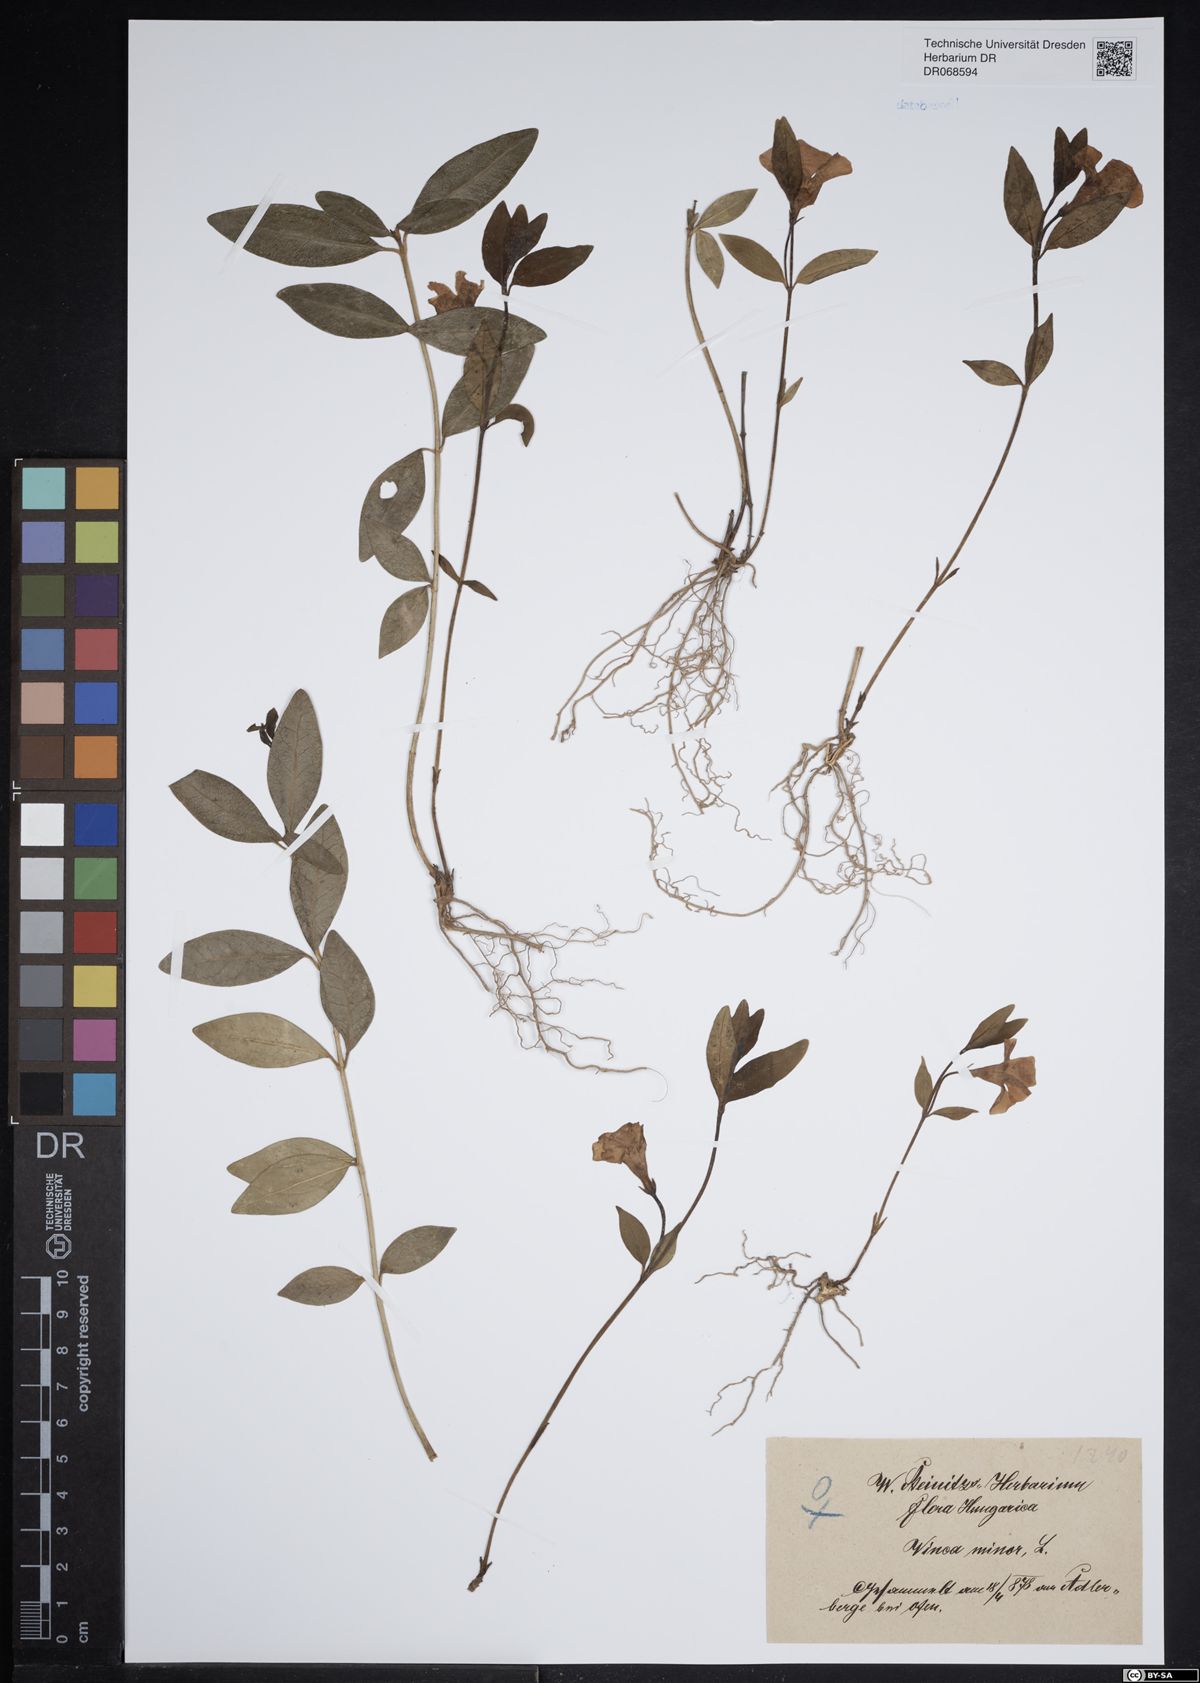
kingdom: Plantae
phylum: Tracheophyta
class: Magnoliopsida
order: Gentianales
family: Apocynaceae
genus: Vinca
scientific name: Vinca minor
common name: Lesser periwinkle
